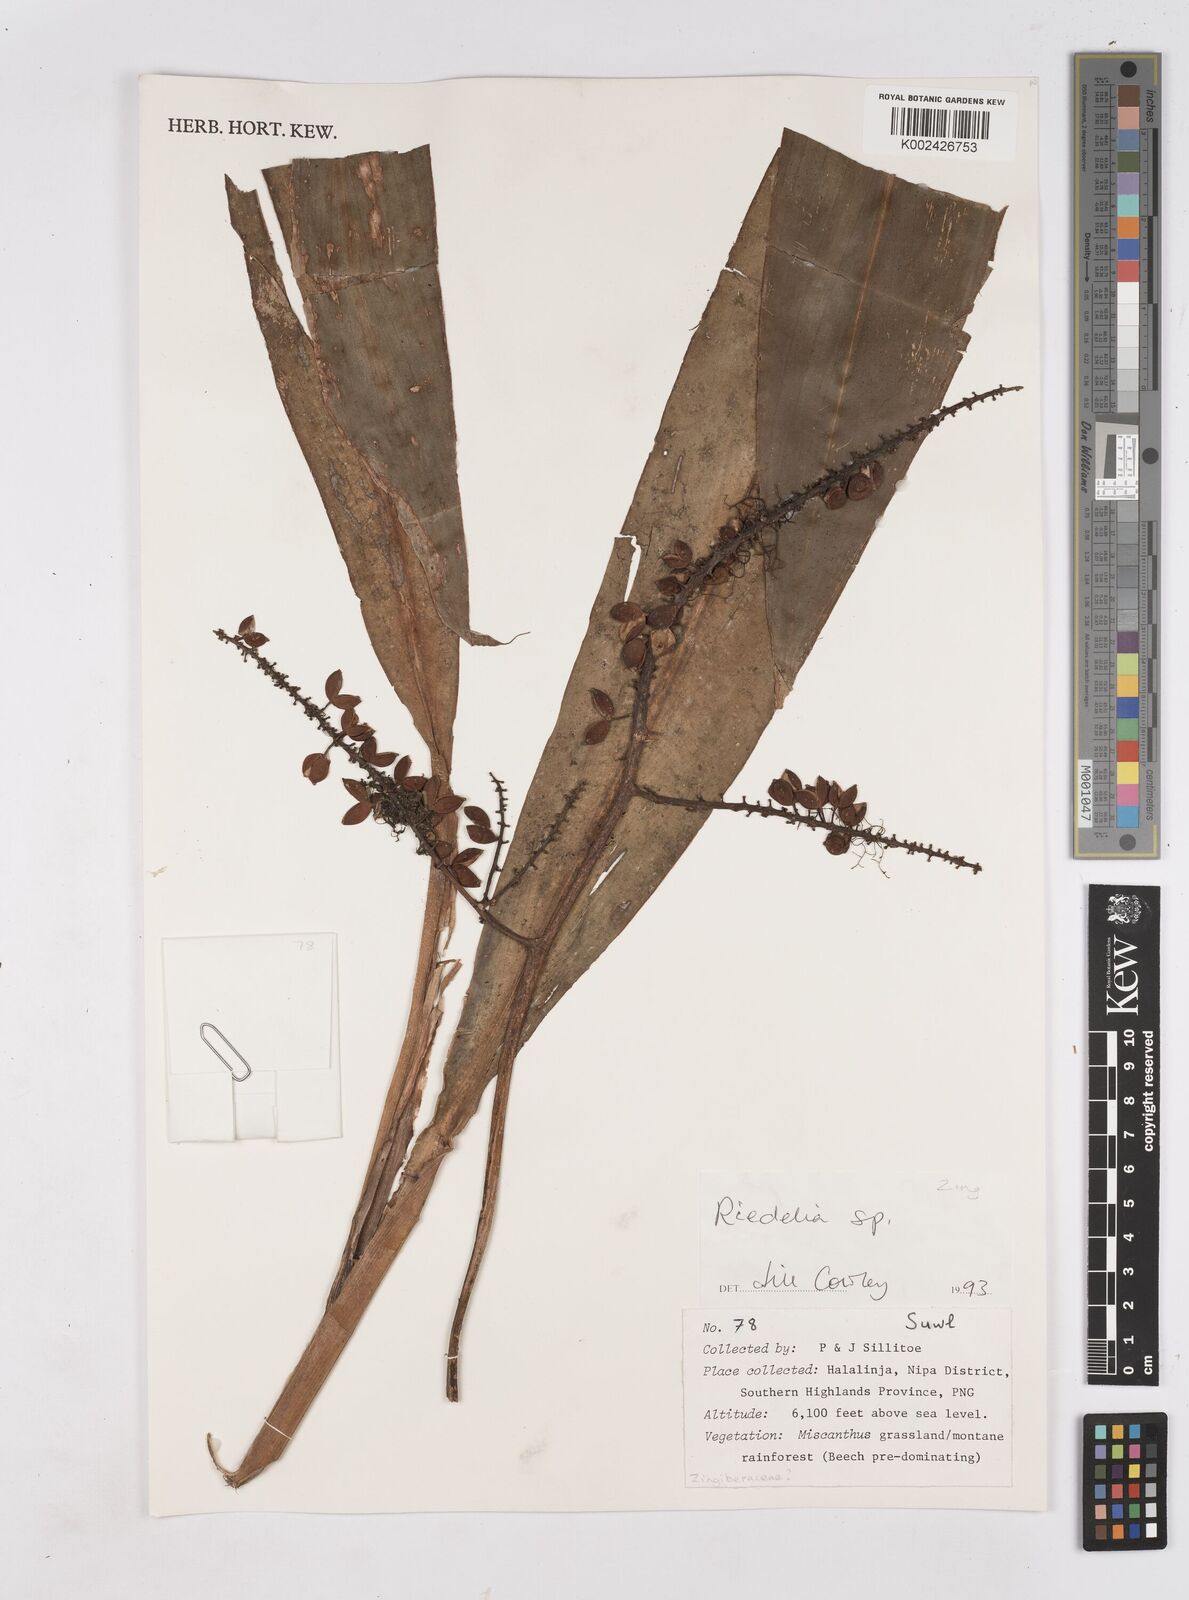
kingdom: Plantae
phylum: Tracheophyta
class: Liliopsida
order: Zingiberales
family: Zingiberaceae
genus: Riedelia
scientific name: Riedelia
